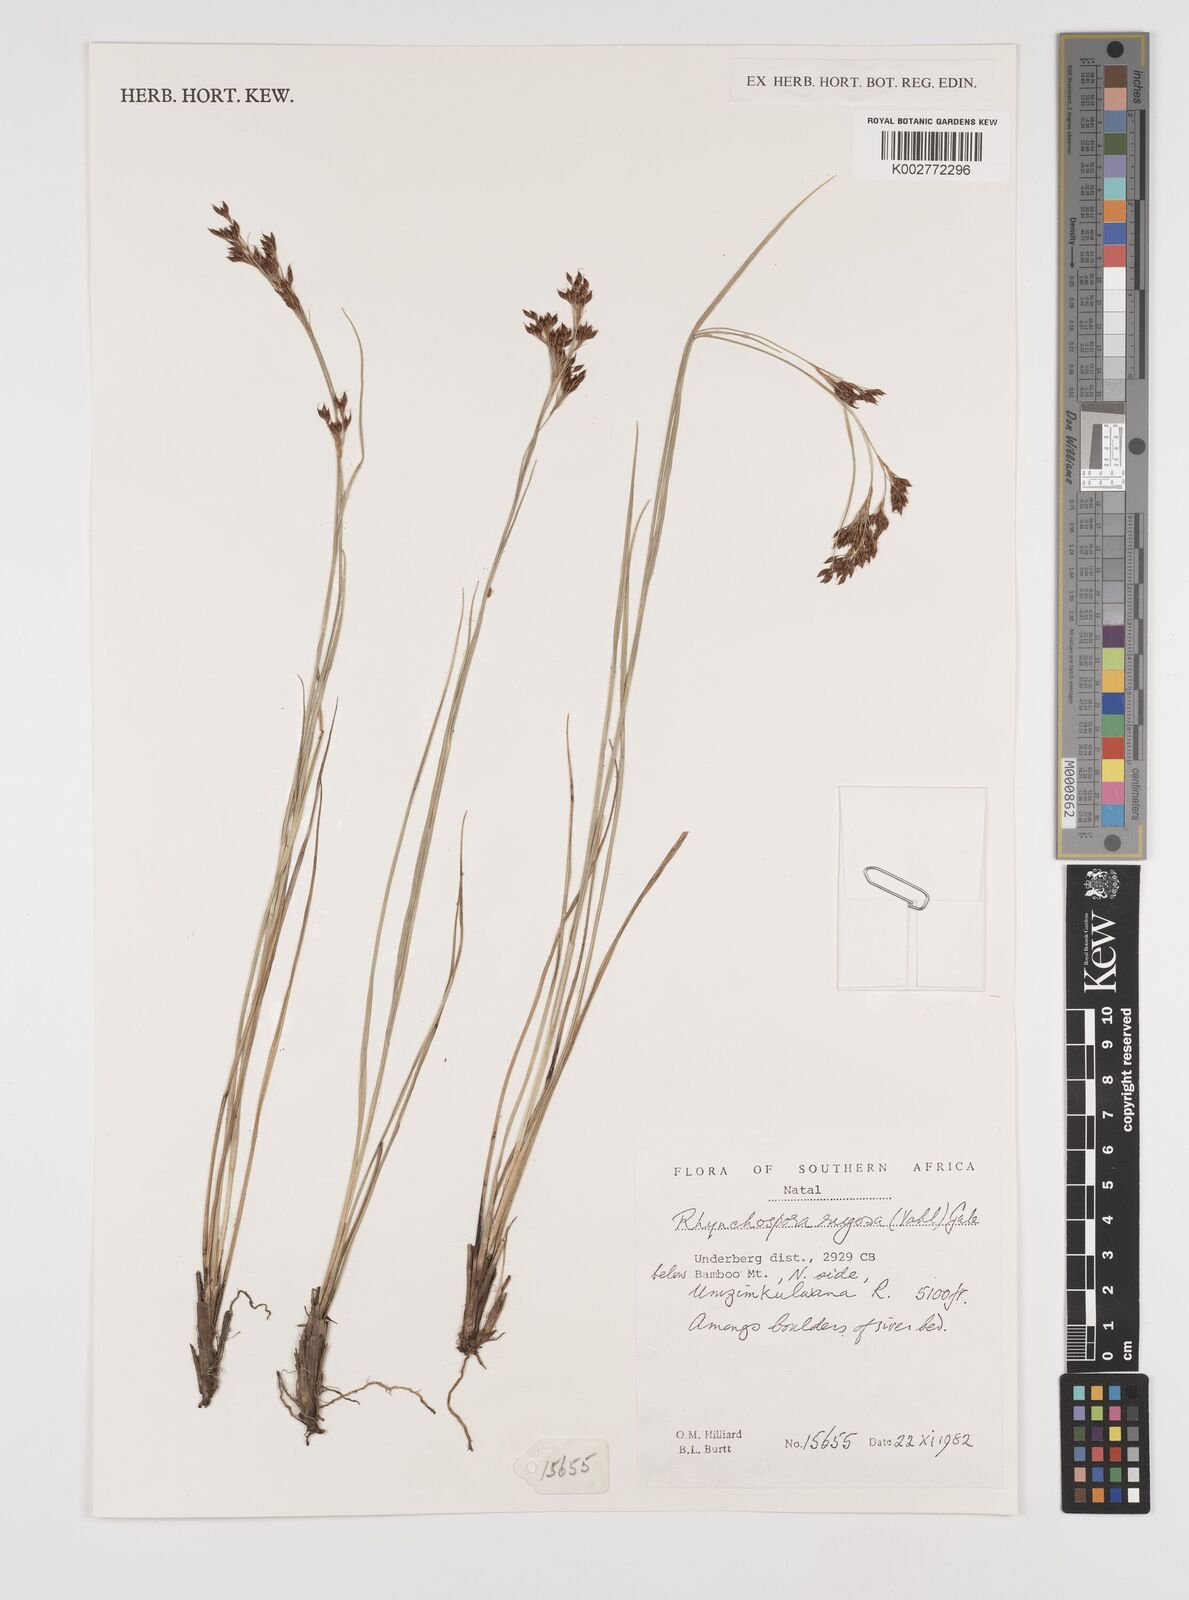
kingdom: Plantae
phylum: Tracheophyta
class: Liliopsida
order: Poales
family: Cyperaceae
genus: Rhynchospora
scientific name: Rhynchospora rugosa
